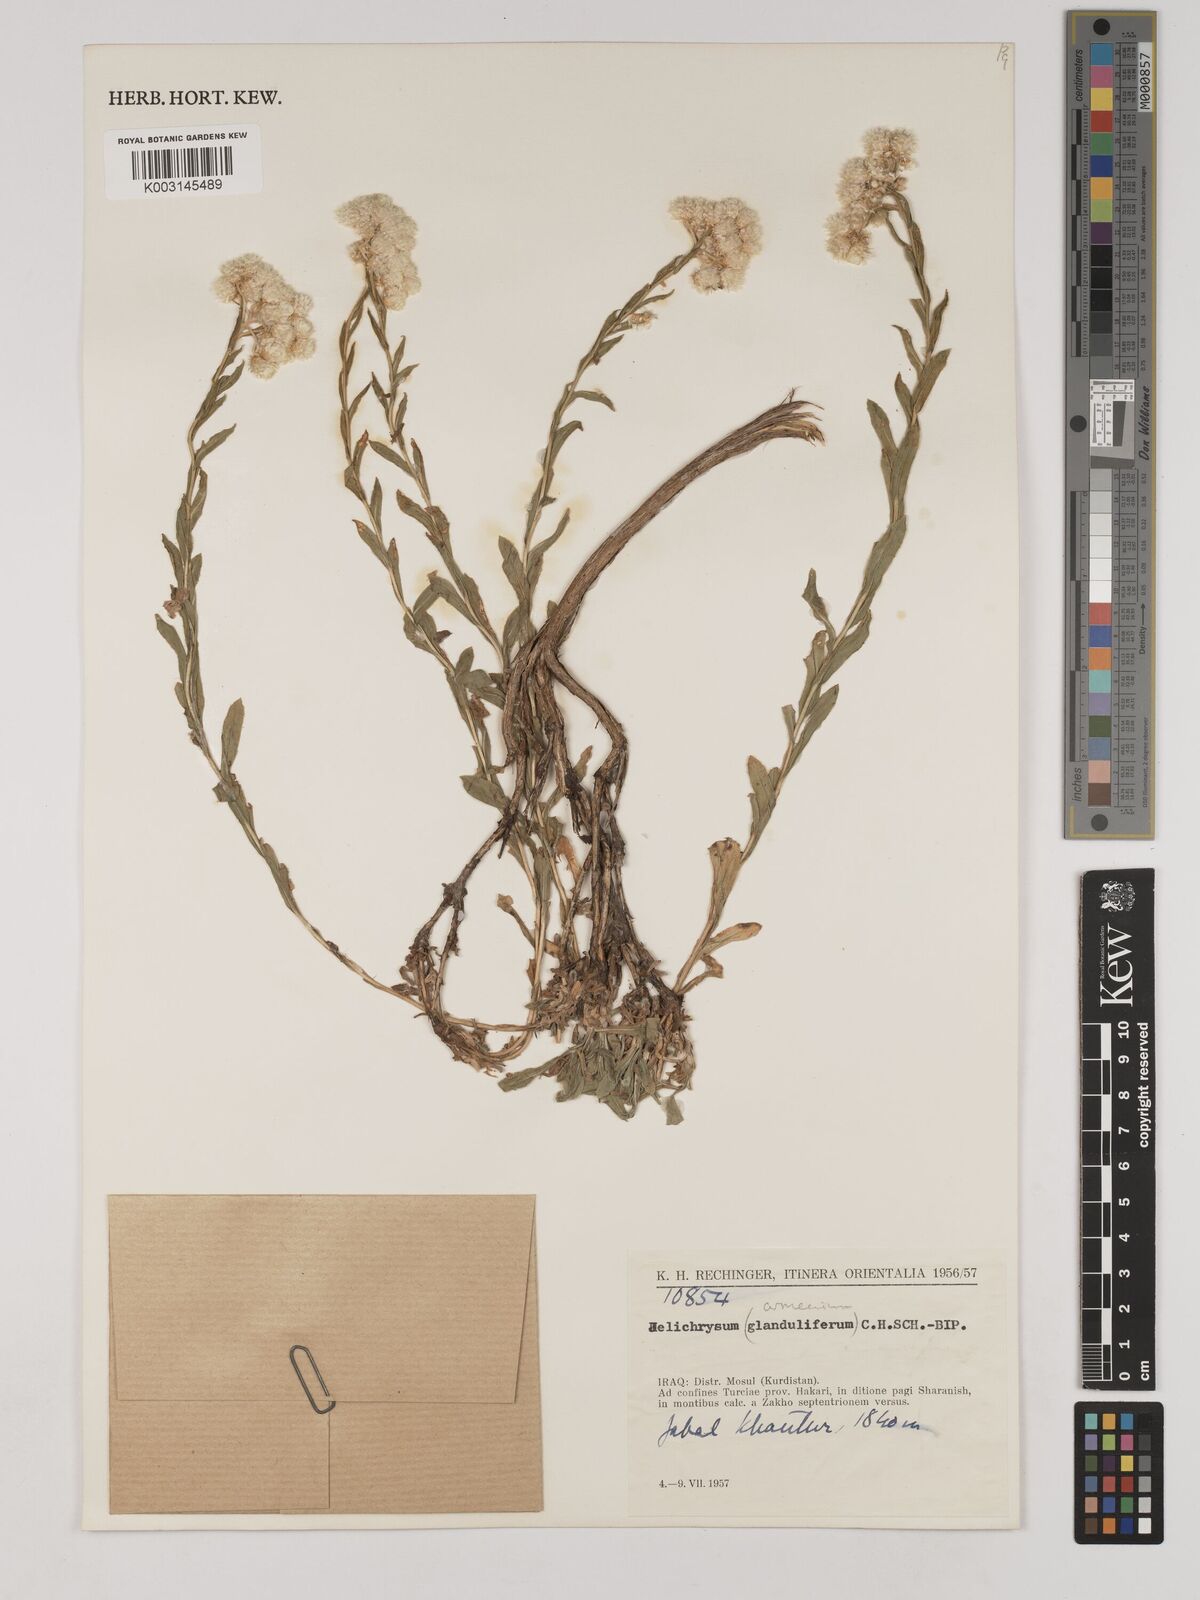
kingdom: Plantae
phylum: Tracheophyta
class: Magnoliopsida
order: Asterales
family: Asteraceae
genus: Helichrysum
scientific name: Helichrysum armenium
